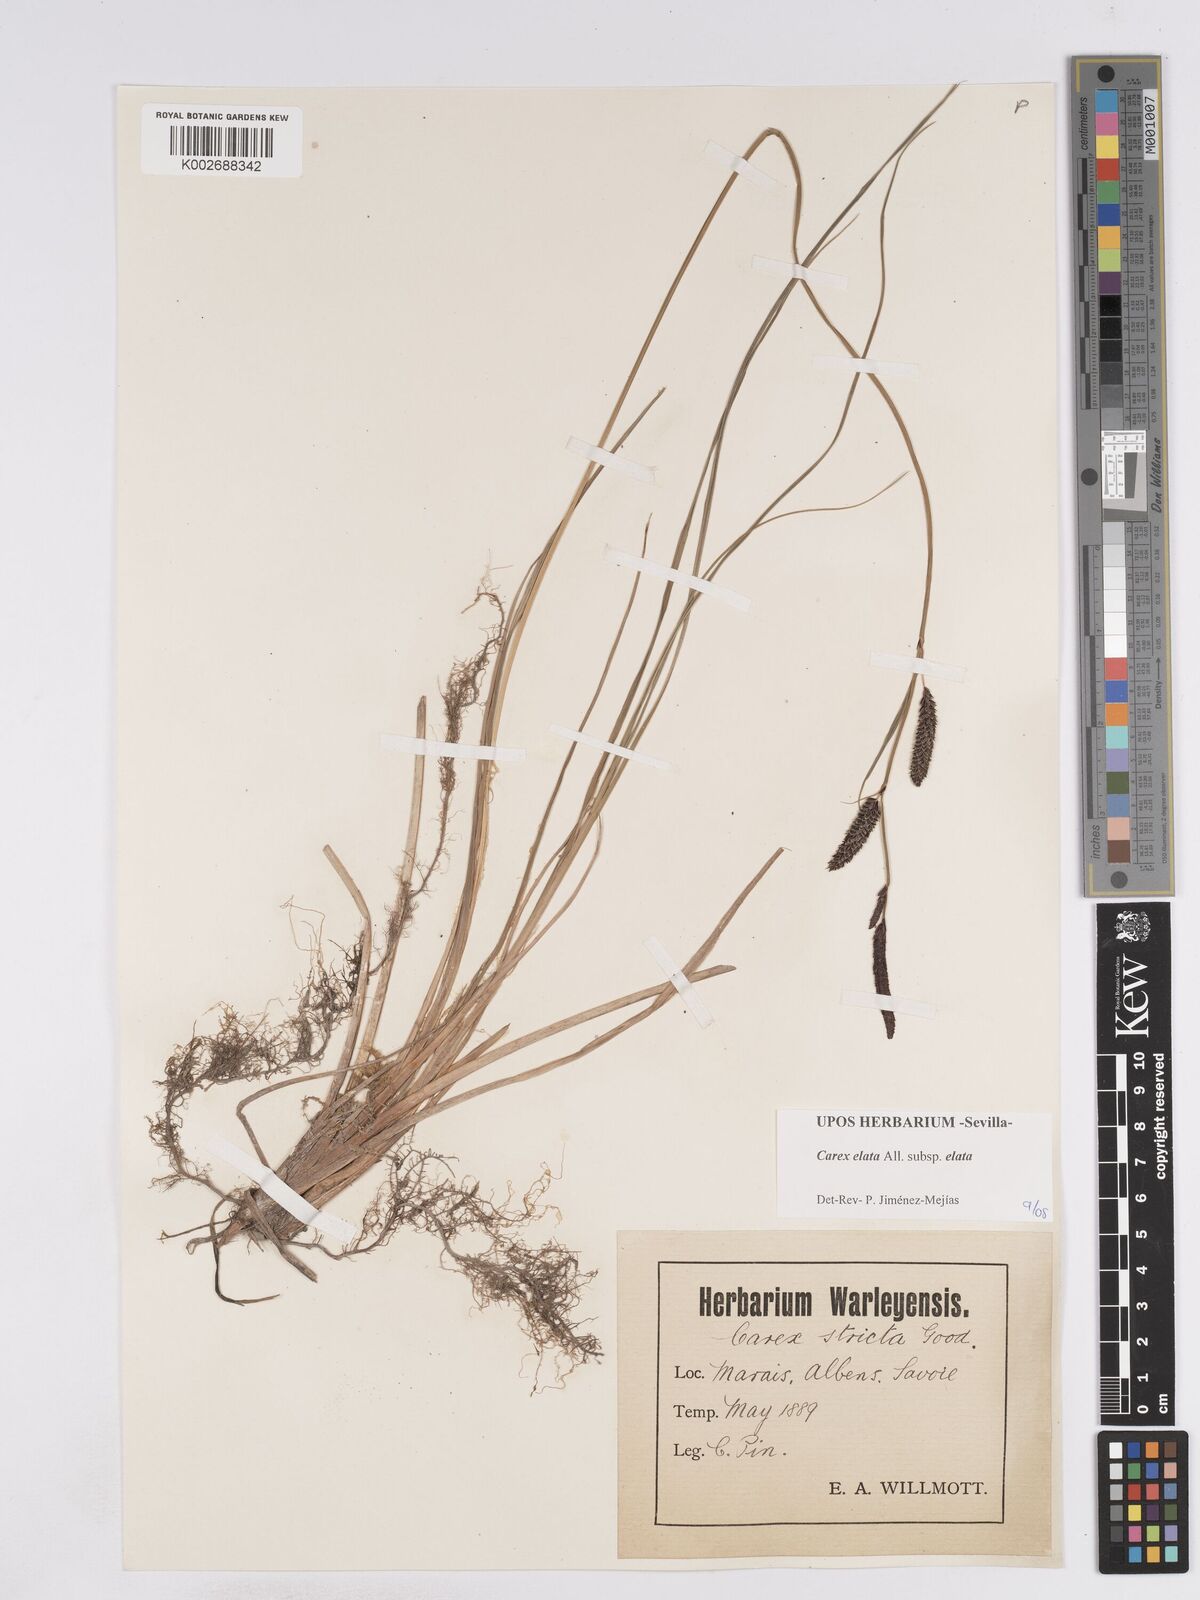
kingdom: Plantae
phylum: Tracheophyta
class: Liliopsida
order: Poales
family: Cyperaceae
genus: Carex
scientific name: Carex elata
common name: Tufted sedge
